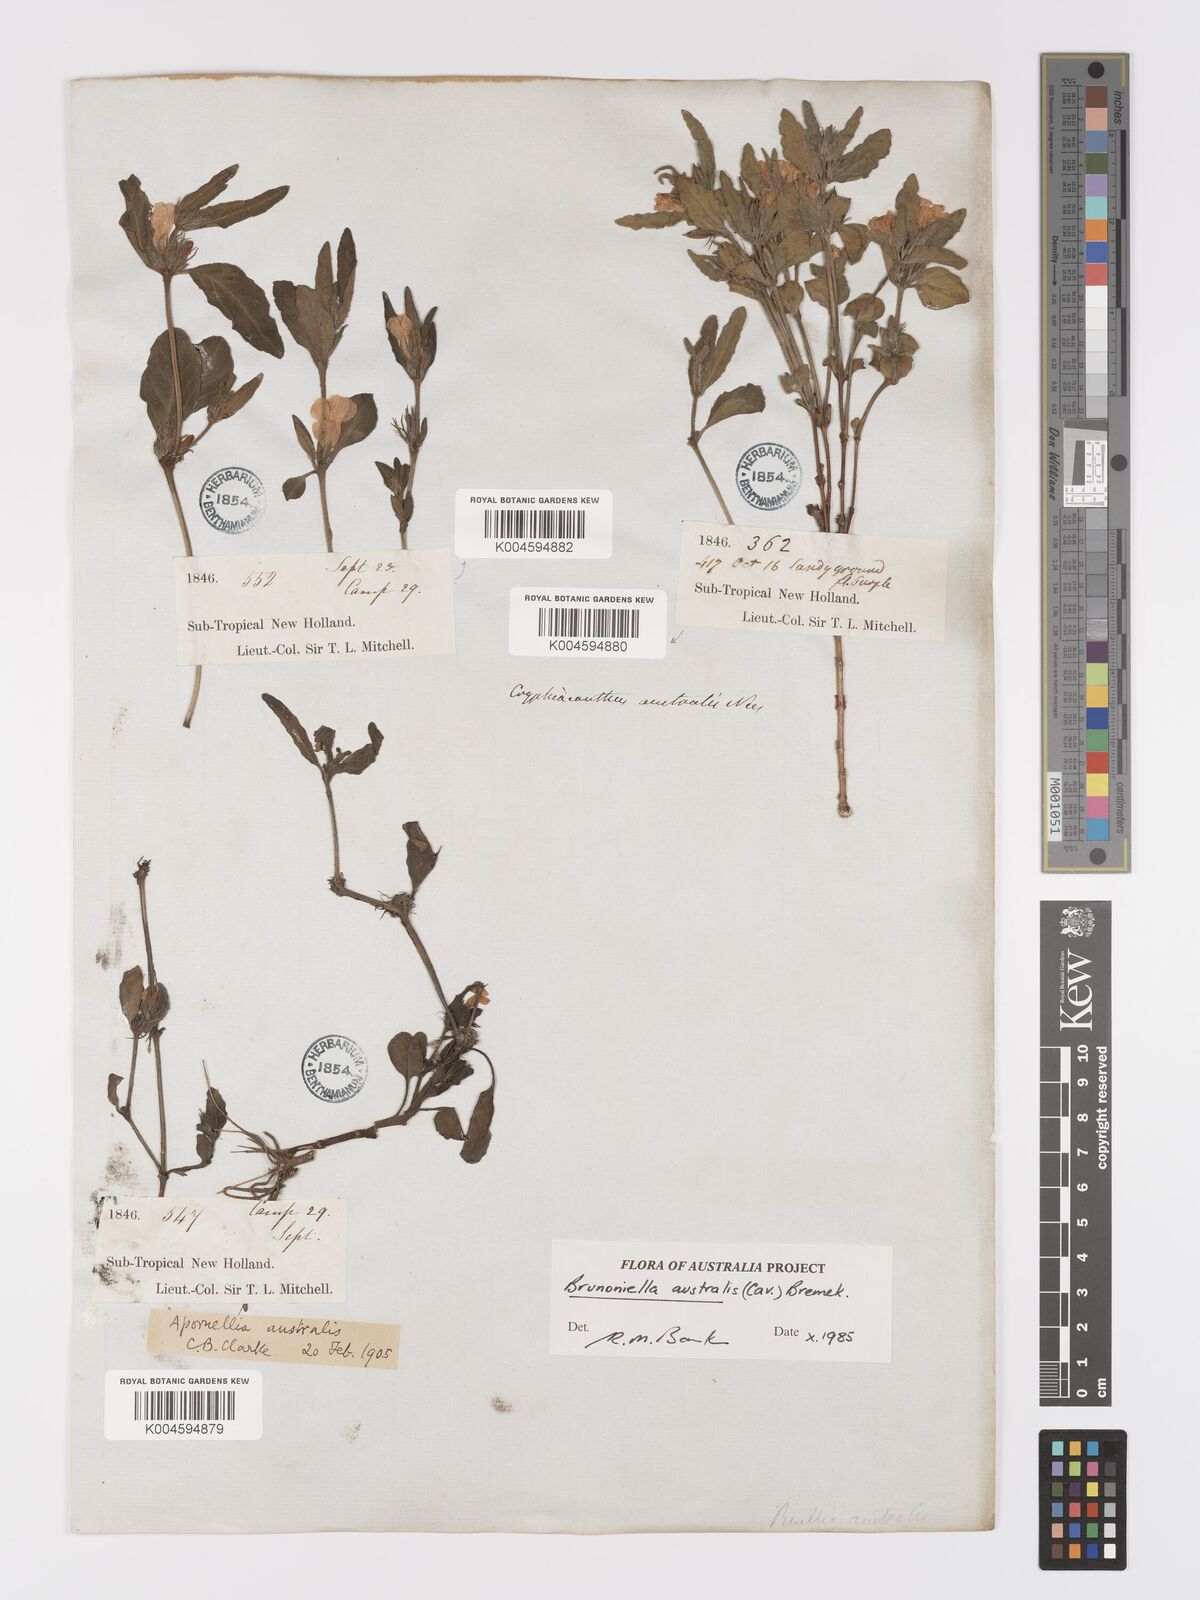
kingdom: Plantae
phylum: Tracheophyta
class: Magnoliopsida
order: Lamiales
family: Acanthaceae
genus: Brunoniella
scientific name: Brunoniella australis
